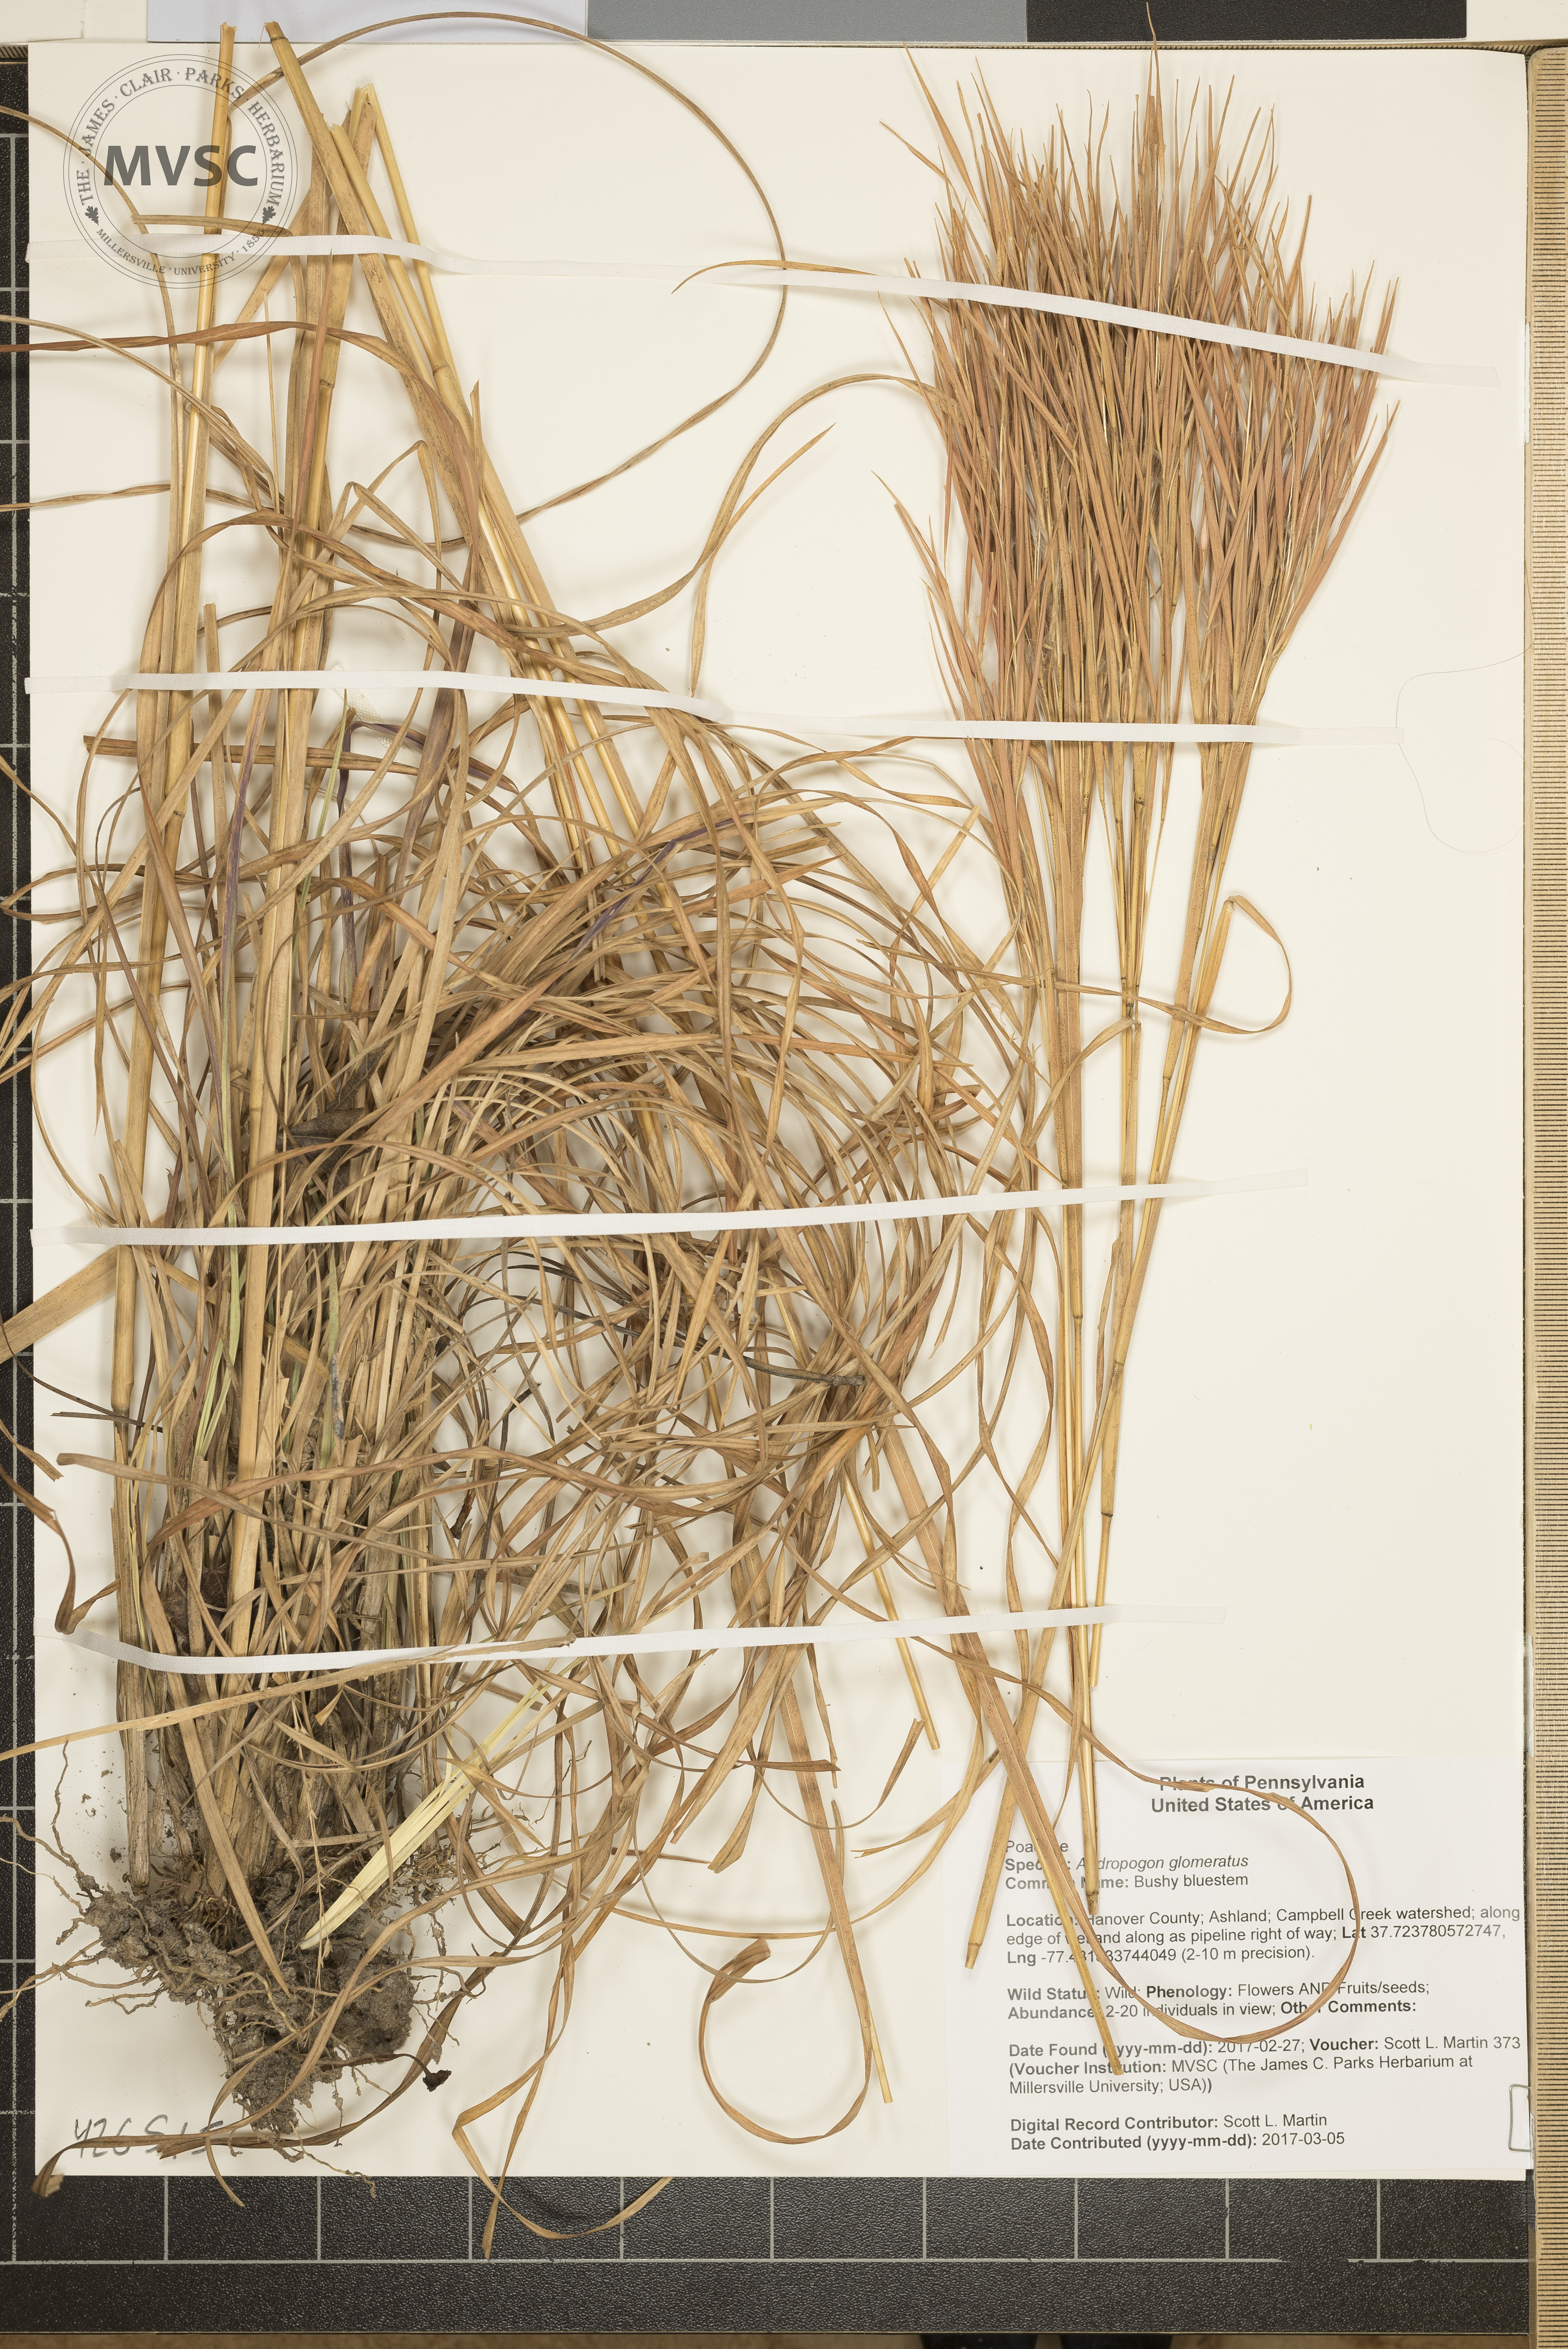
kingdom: Plantae
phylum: Tracheophyta
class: Liliopsida
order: Poales
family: Poaceae
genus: Andropogon
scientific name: Andropogon glomeratus
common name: Bushy bluestem
